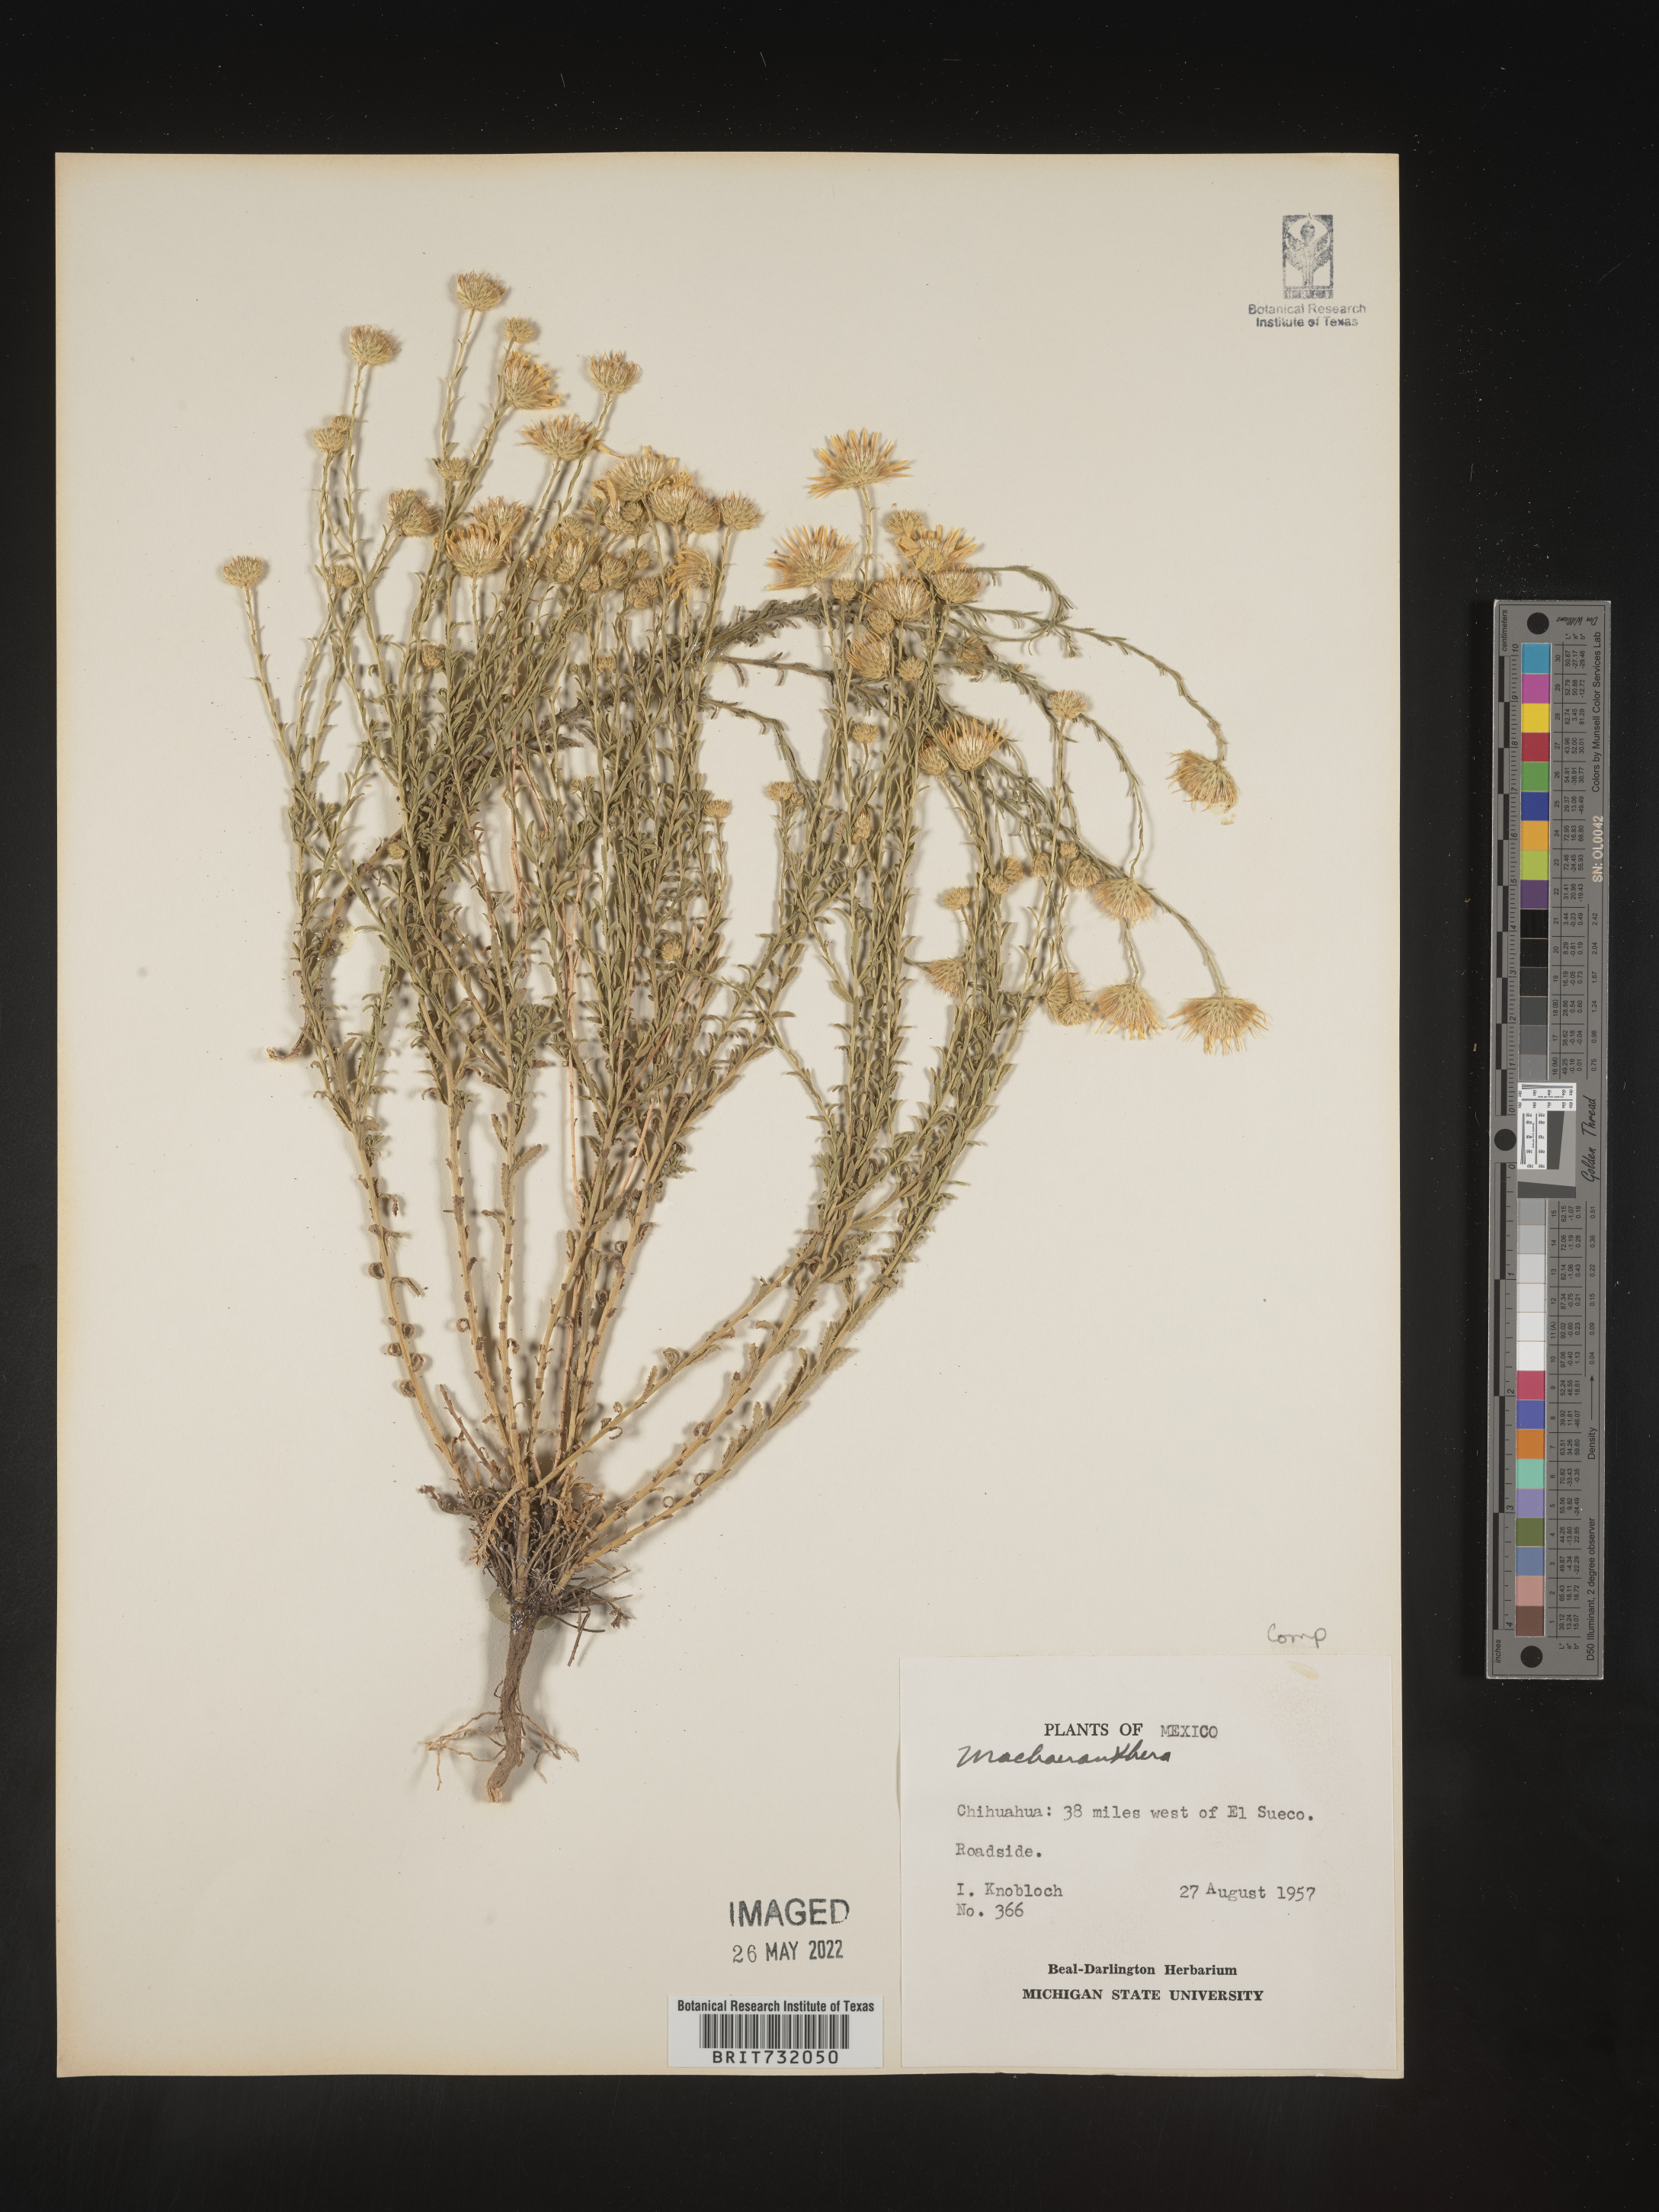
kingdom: Plantae
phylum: Tracheophyta
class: Magnoliopsida
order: Asterales
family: Asteraceae
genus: Machaeranthera
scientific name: Machaeranthera
